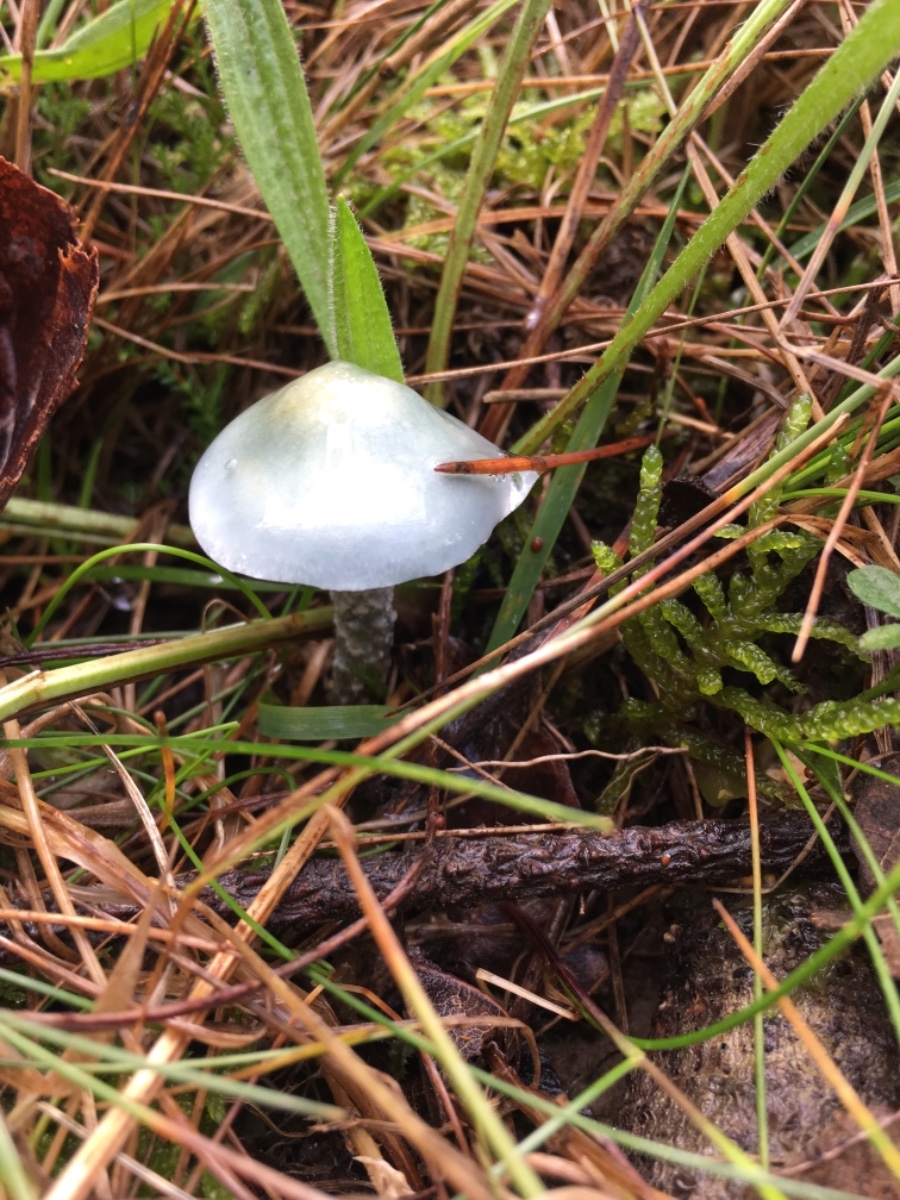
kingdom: Fungi
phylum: Basidiomycota
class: Agaricomycetes
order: Agaricales
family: Strophariaceae
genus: Stropharia
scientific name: Stropharia cyanea
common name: blågrøn bredblad
